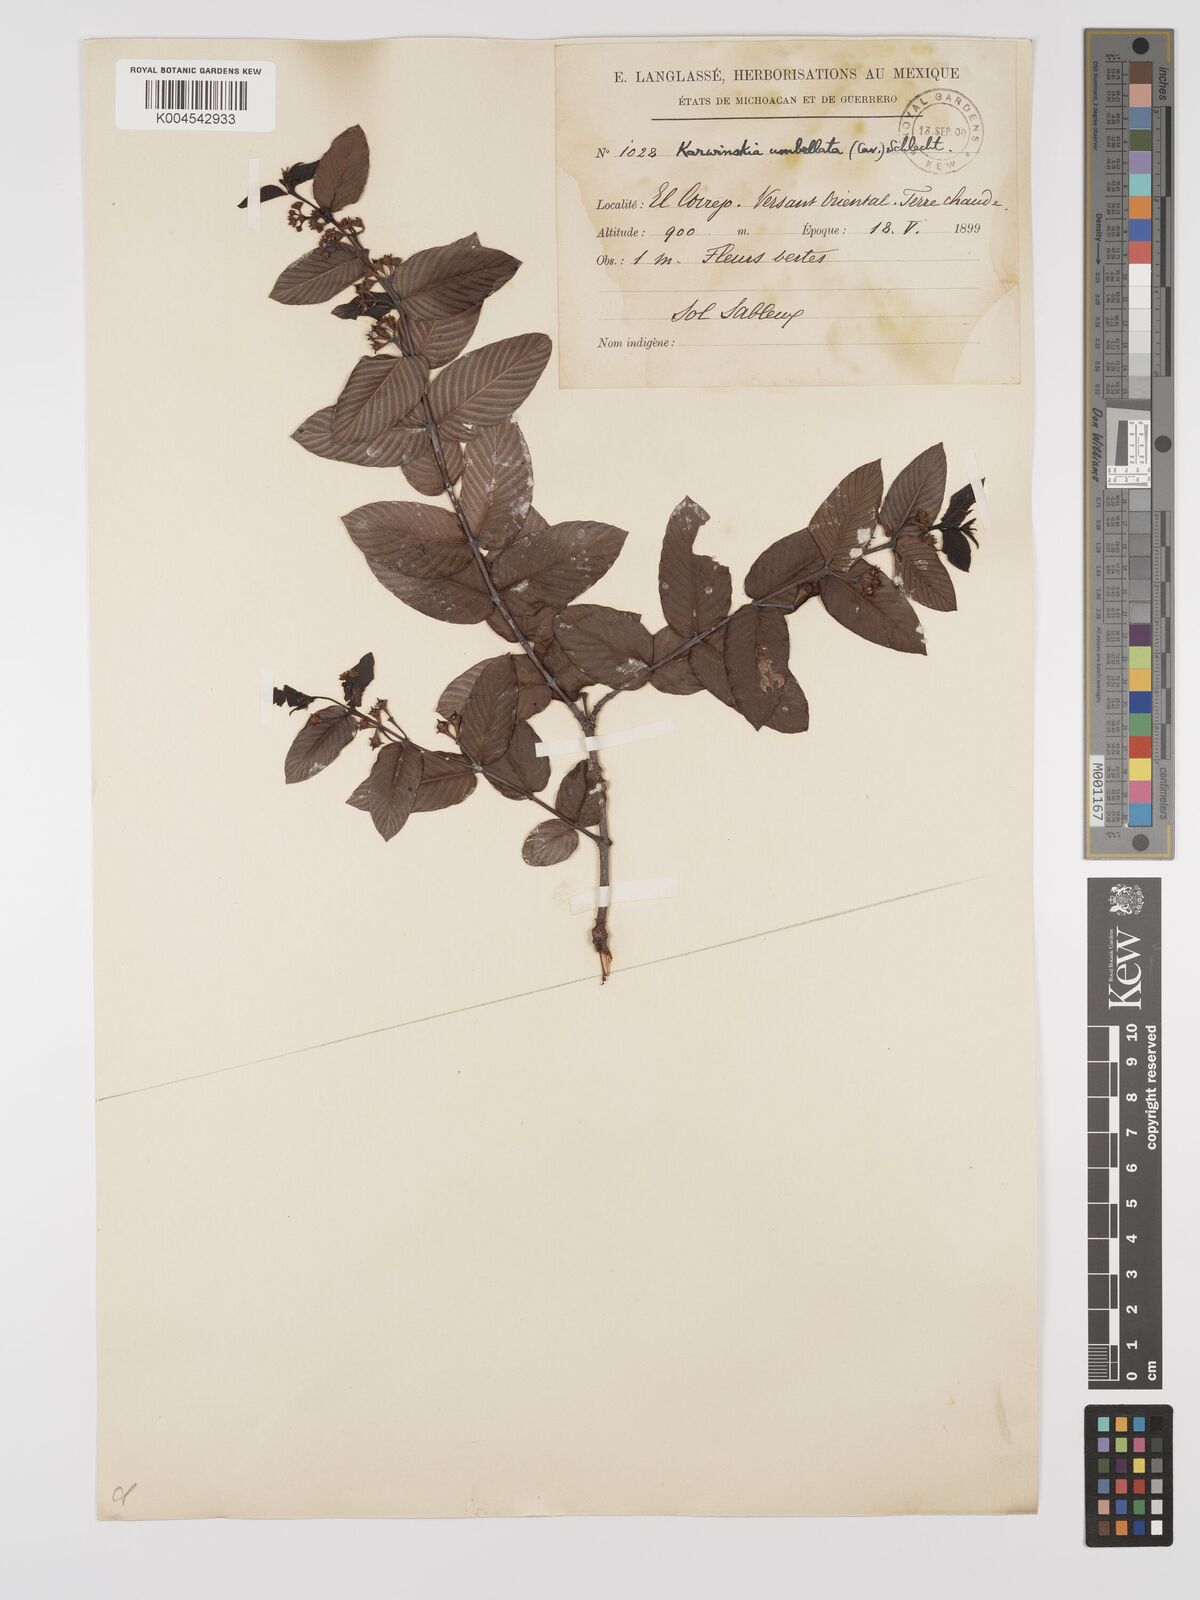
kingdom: Plantae
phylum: Tracheophyta
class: Magnoliopsida
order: Rosales
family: Rhamnaceae
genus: Karwinskia
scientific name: Karwinskia umbellata
